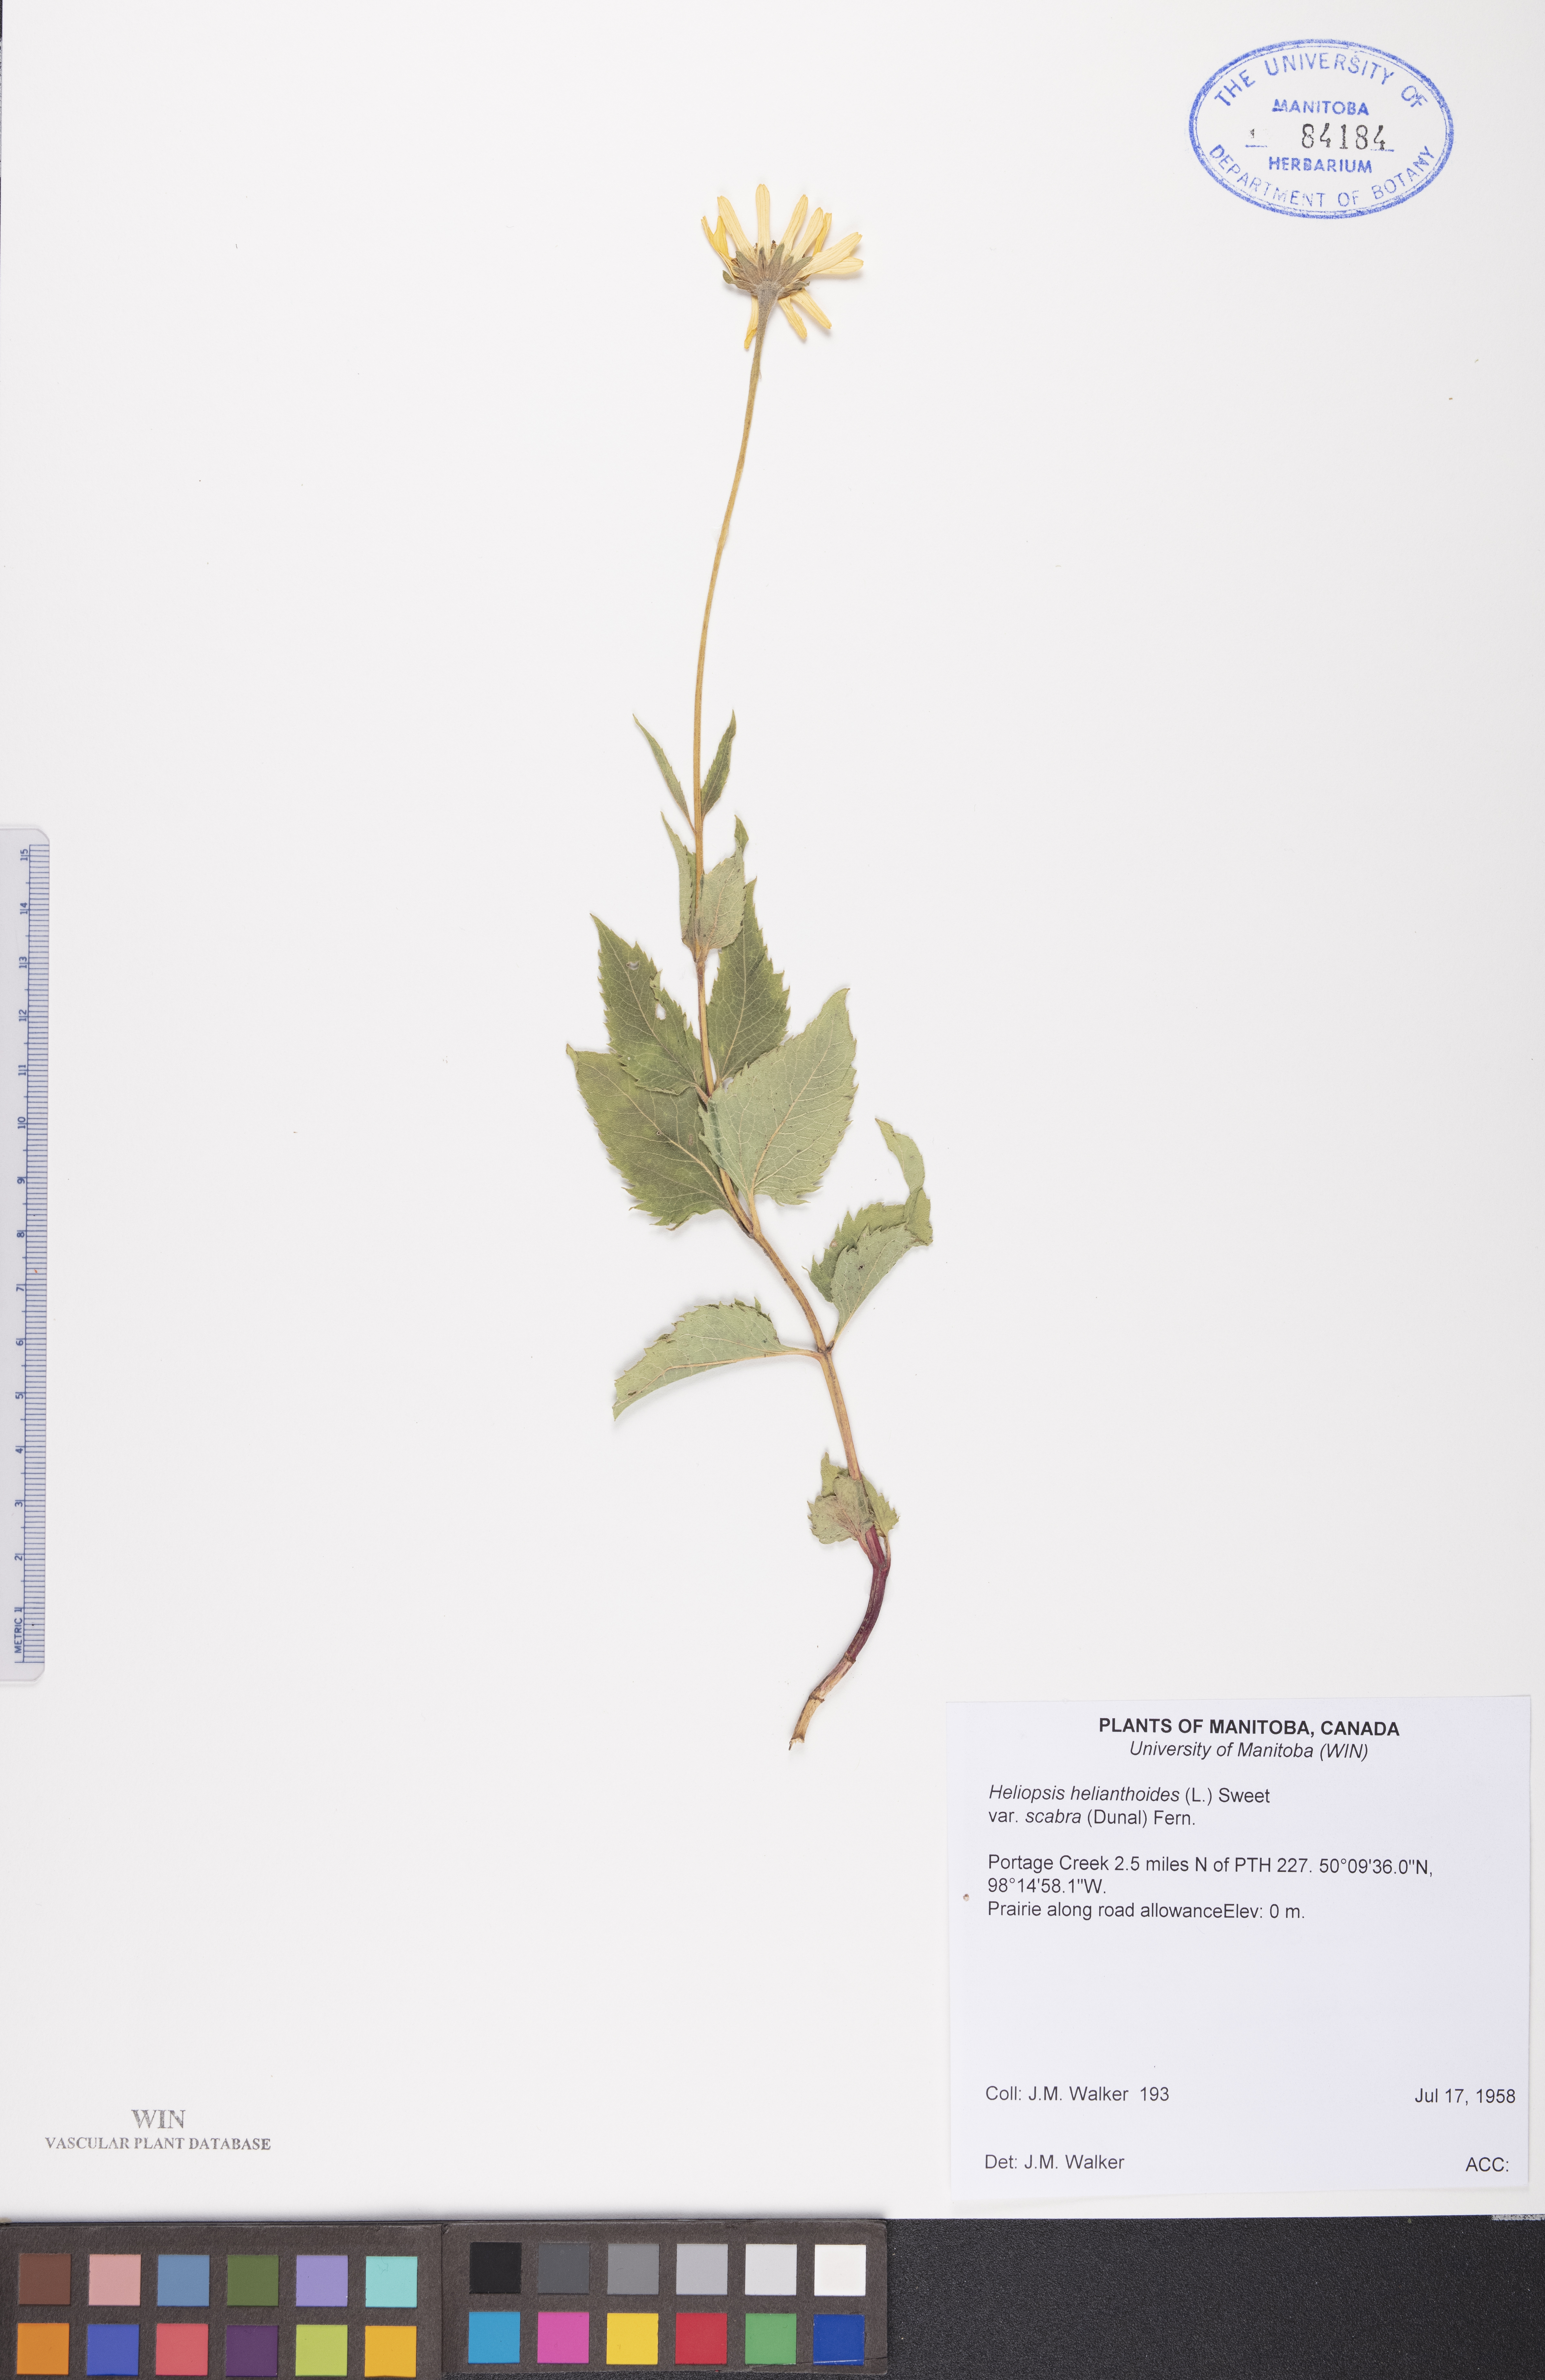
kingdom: Plantae
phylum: Tracheophyta
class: Magnoliopsida
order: Asterales
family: Asteraceae
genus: Heliopsis
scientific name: Heliopsis helianthoides
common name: False sunflower
